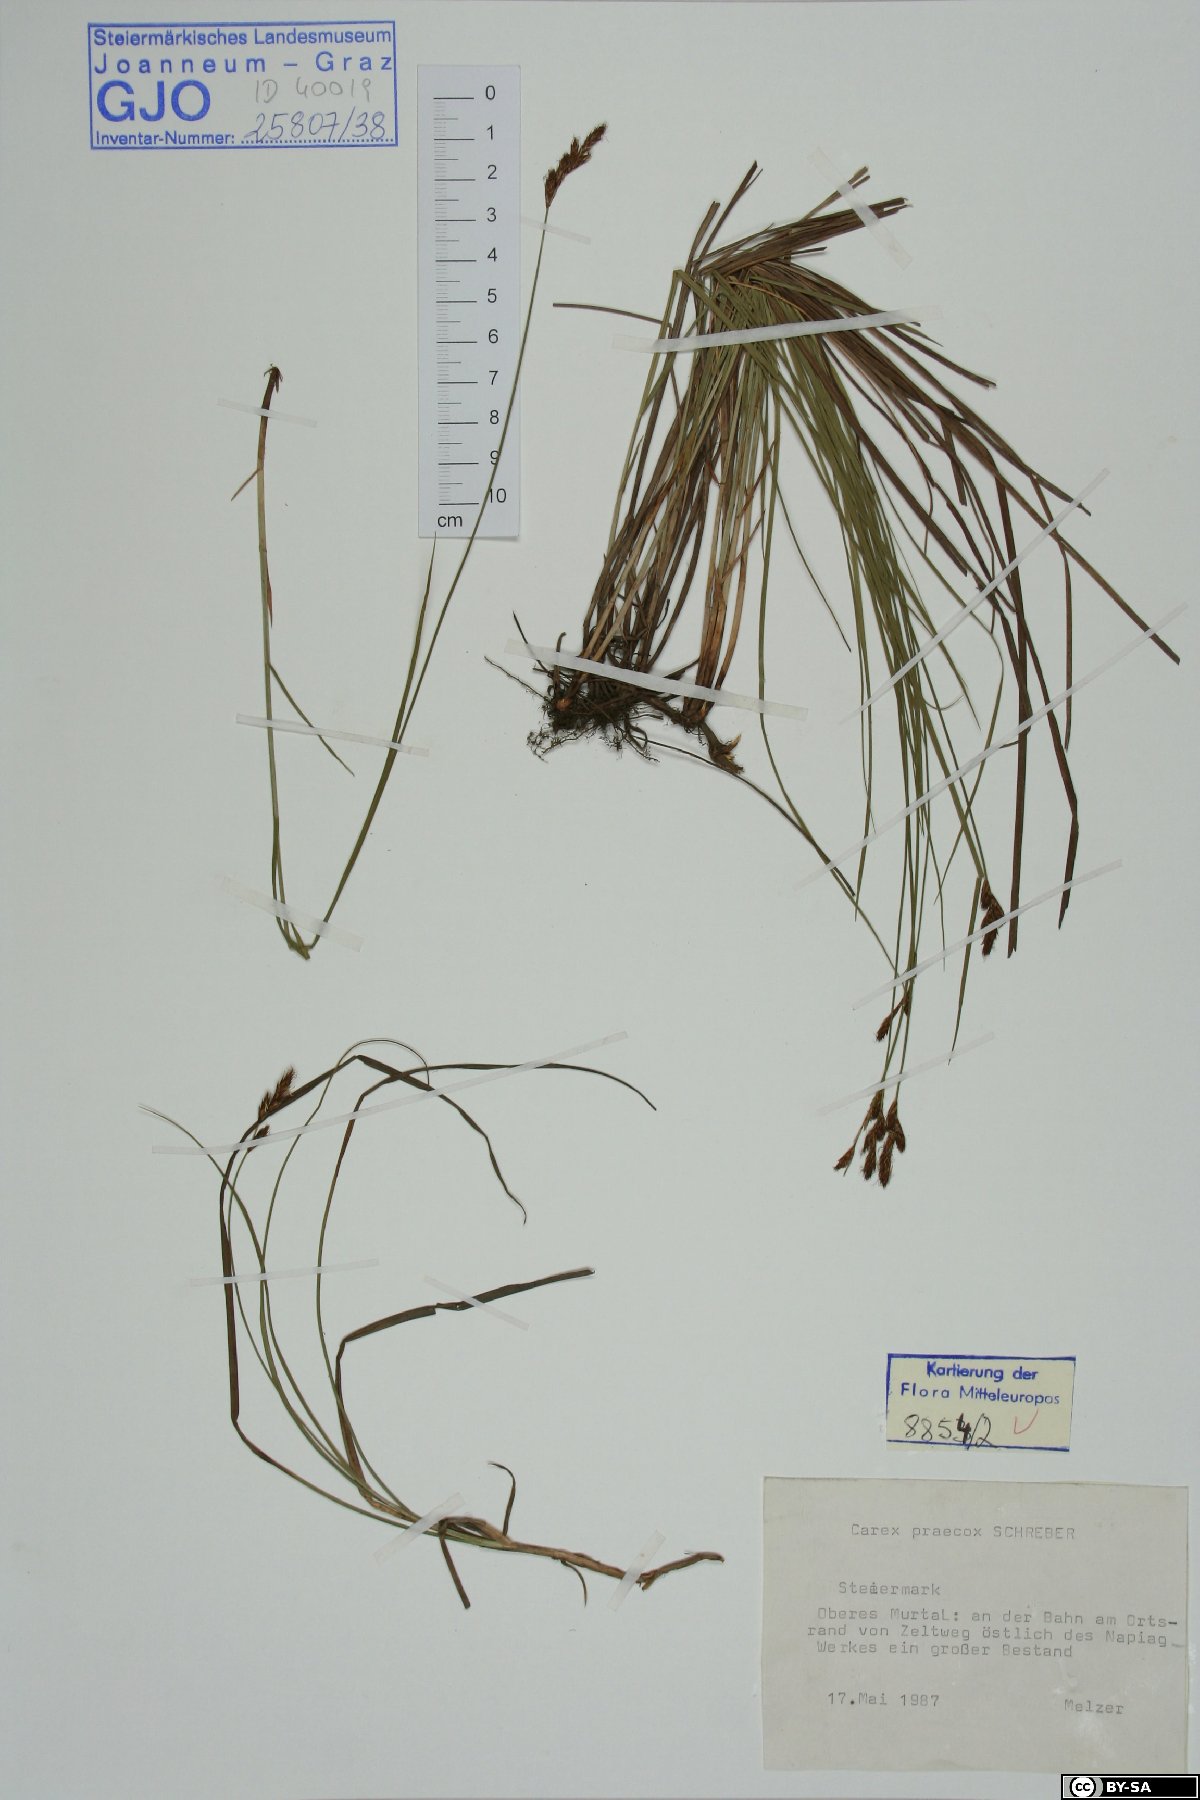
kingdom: Plantae
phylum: Tracheophyta
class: Liliopsida
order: Poales
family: Cyperaceae
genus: Carex
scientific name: Carex praecox
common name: Early sedge
